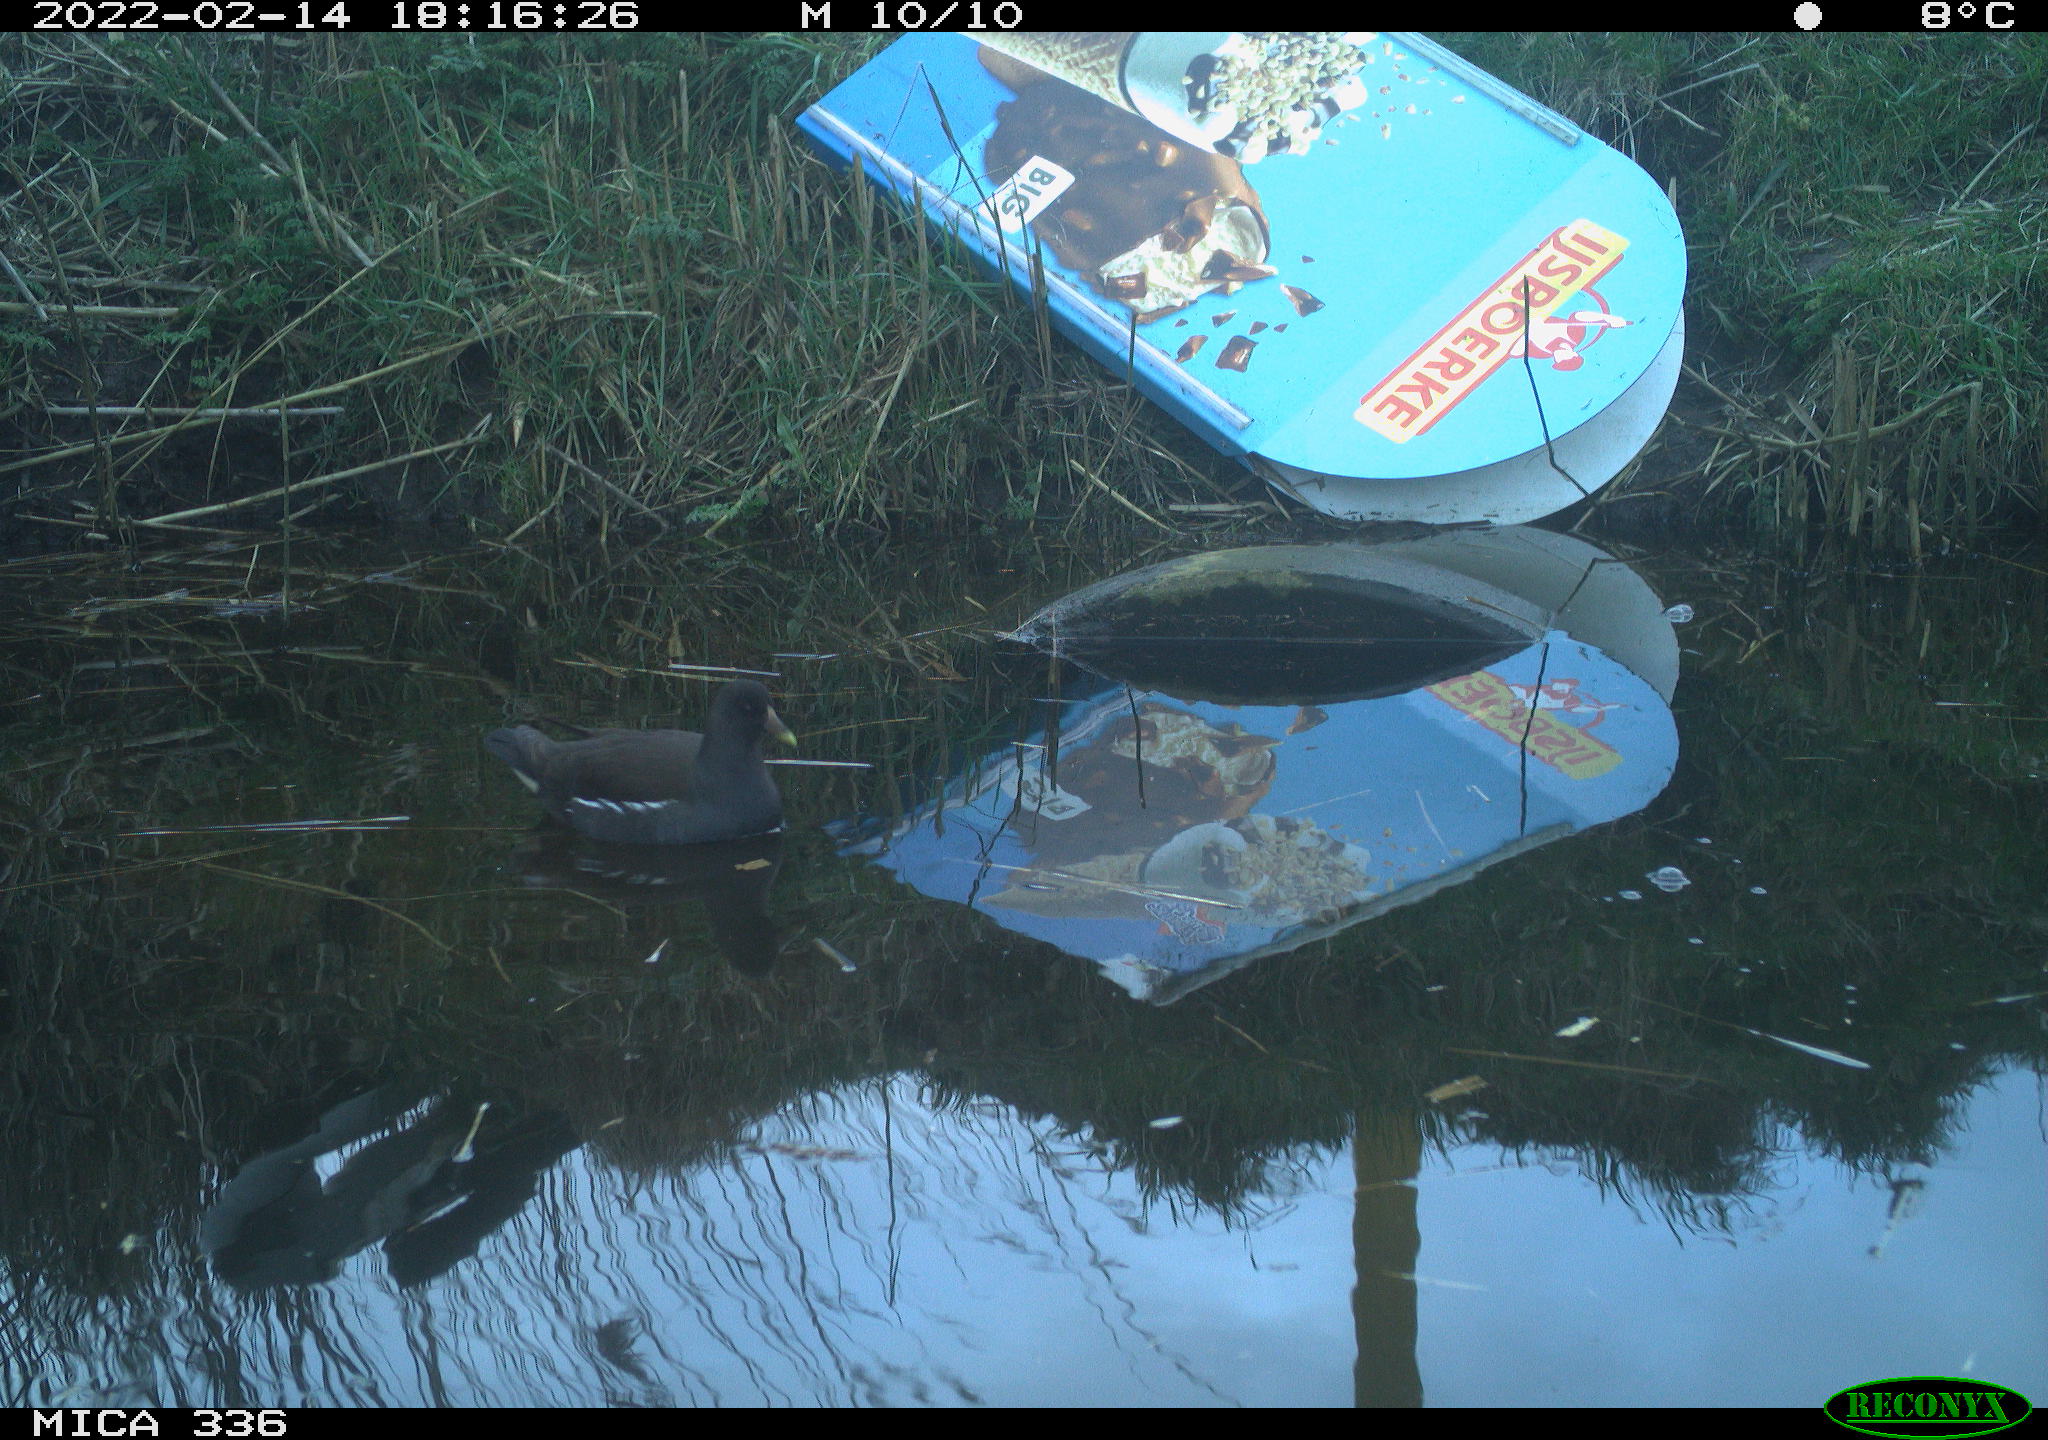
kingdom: Animalia
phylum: Chordata
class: Aves
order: Gruiformes
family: Rallidae
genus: Gallinula
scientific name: Gallinula chloropus
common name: Common moorhen
